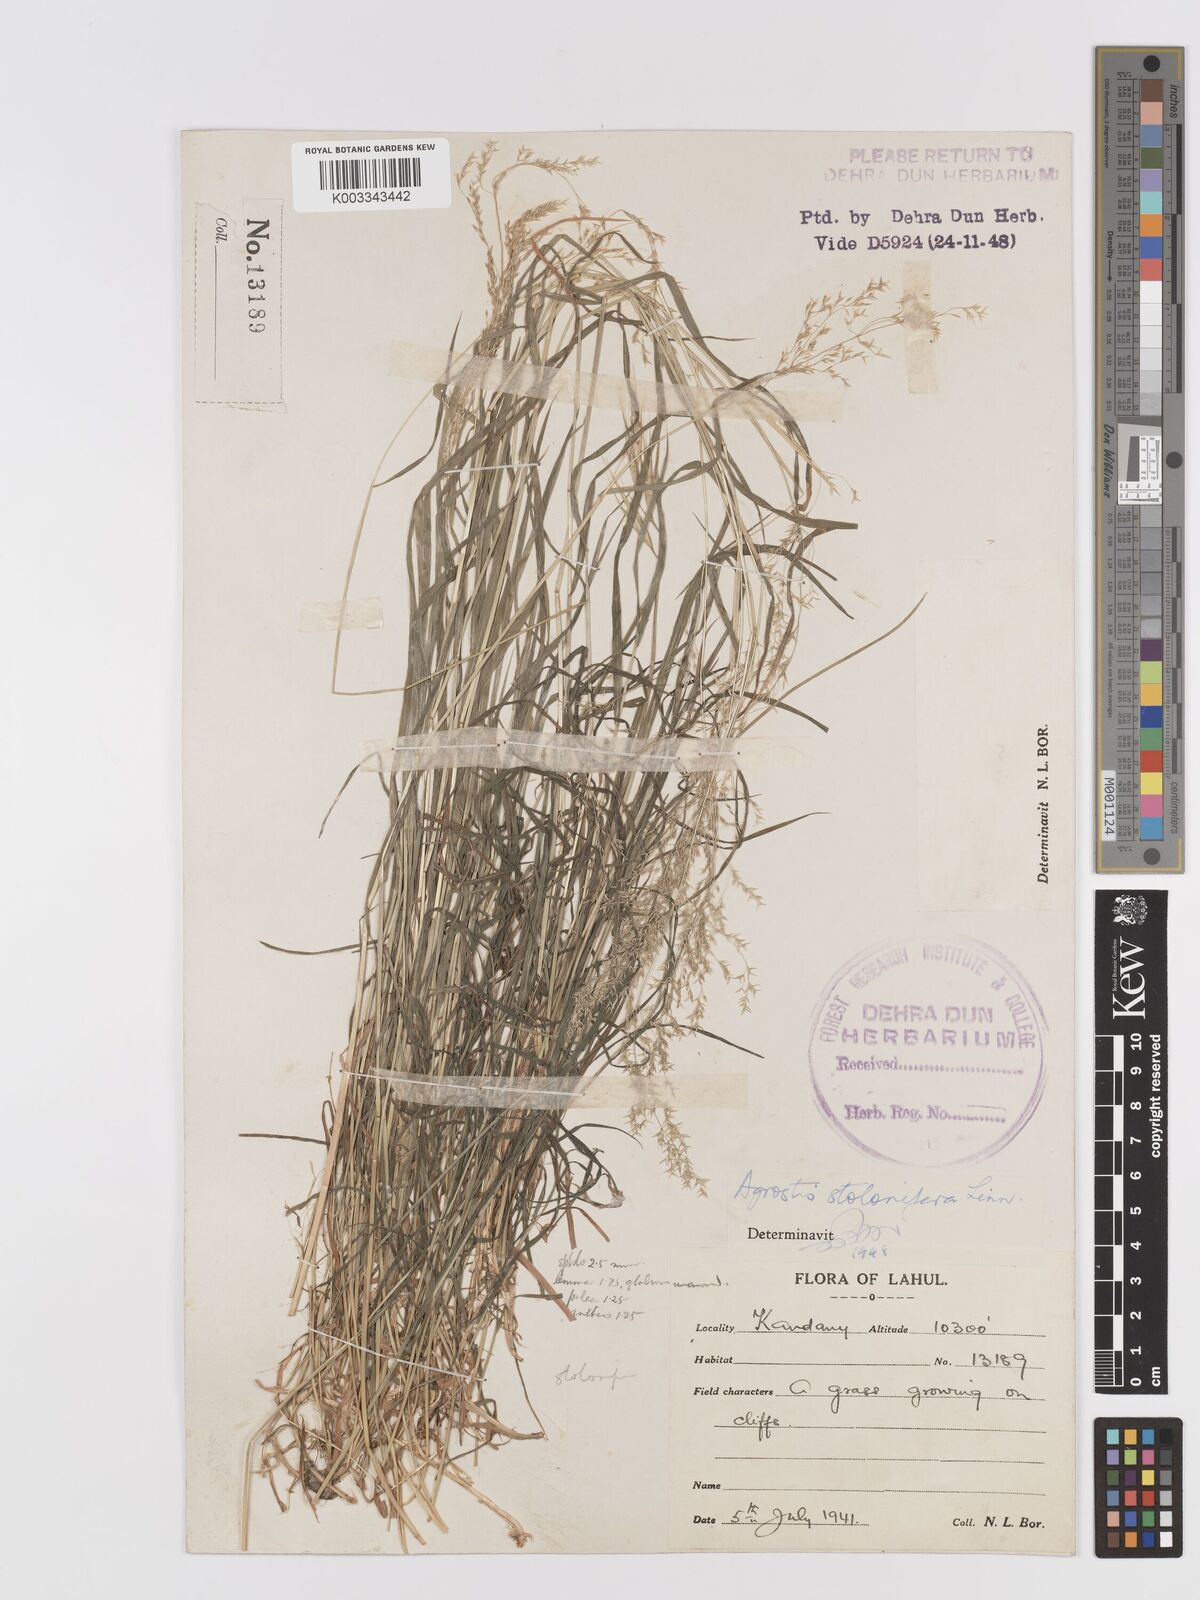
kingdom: Plantae
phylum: Tracheophyta
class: Liliopsida
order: Poales
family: Poaceae
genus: Agrostis
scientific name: Agrostis stolonifera
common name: Creeping bentgrass
